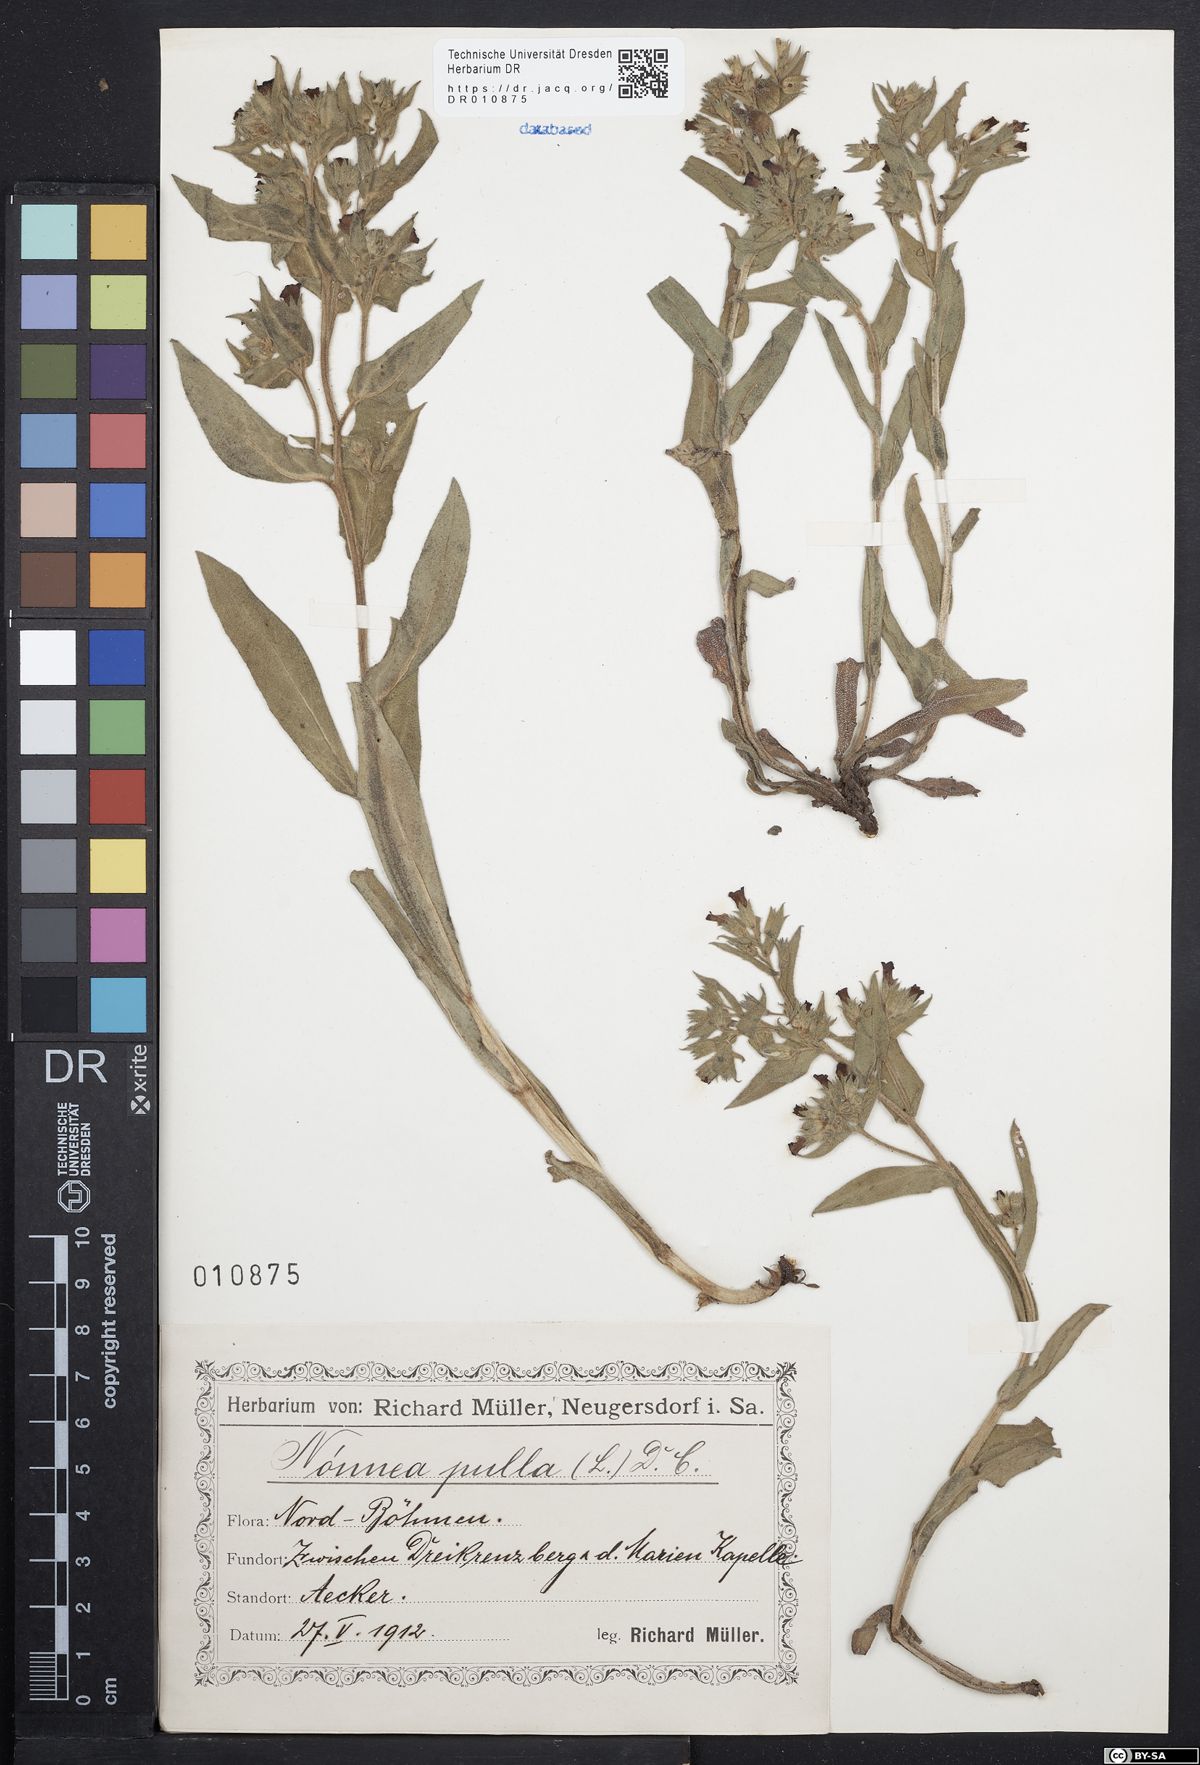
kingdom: Plantae
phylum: Tracheophyta
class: Magnoliopsida
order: Boraginales
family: Boraginaceae
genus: Nonea
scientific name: Nonea pulla
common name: Brown nonea
